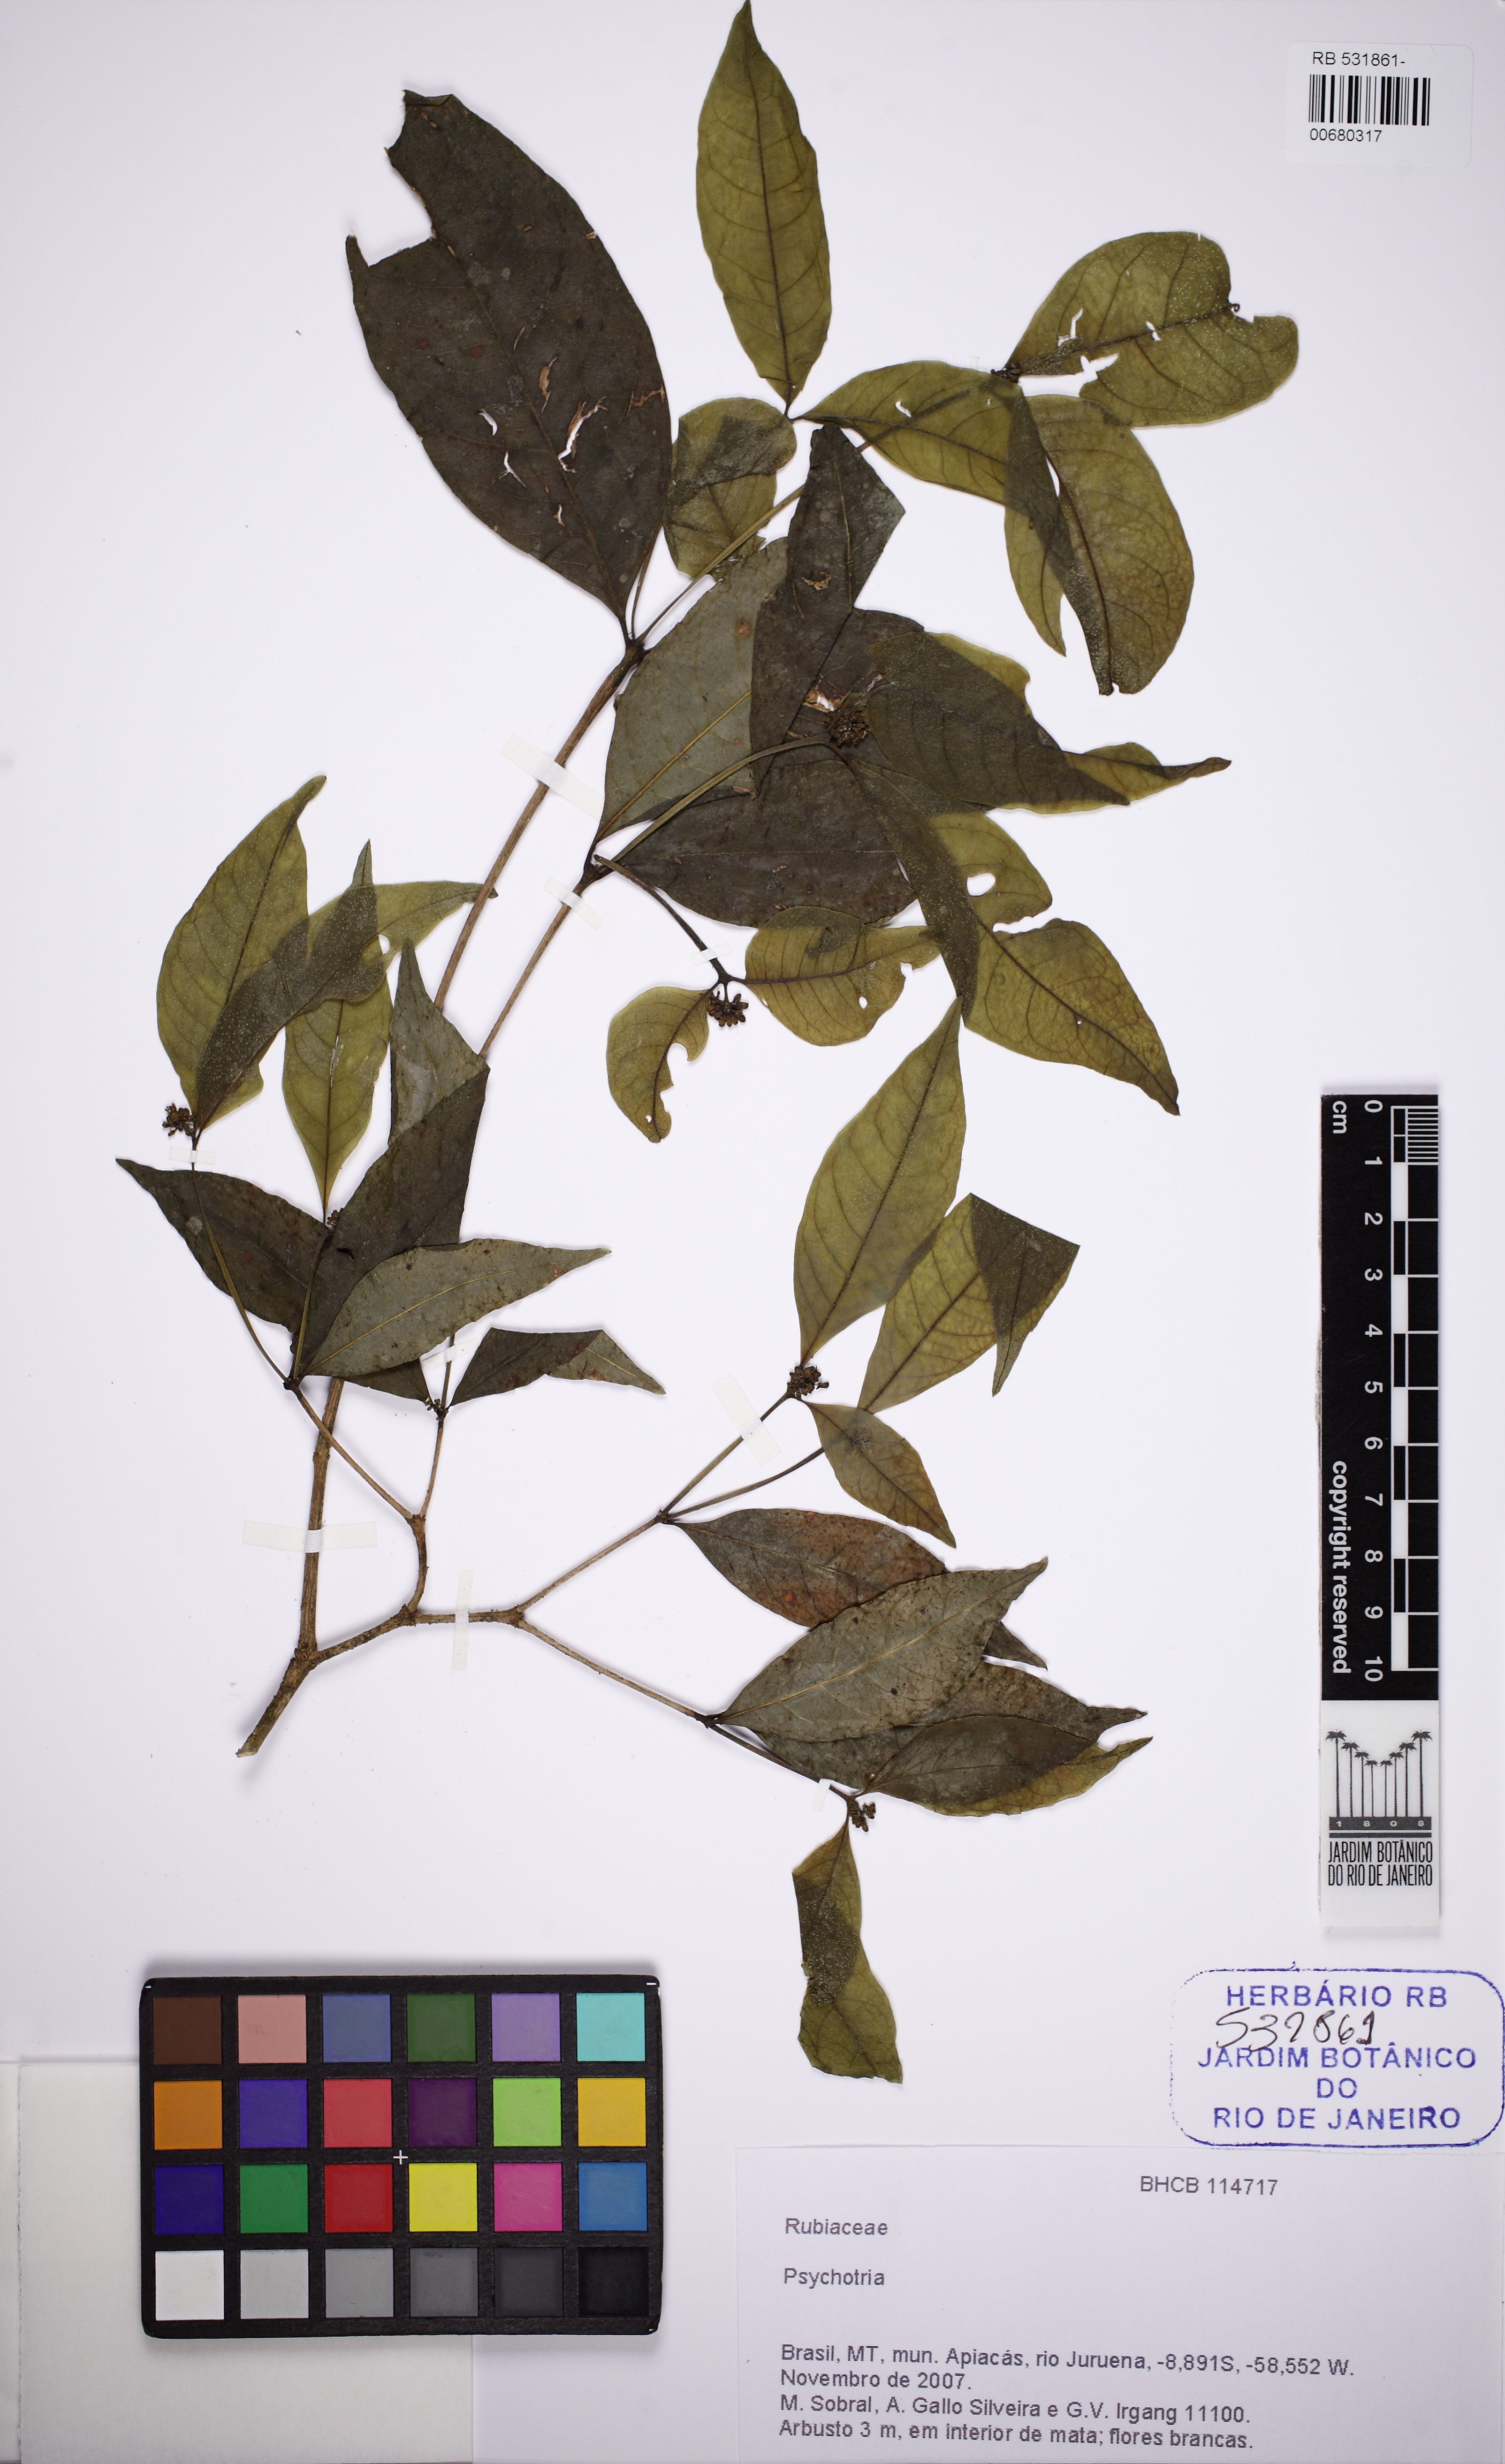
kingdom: Plantae
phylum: Tracheophyta
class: Magnoliopsida
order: Gentianales
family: Rubiaceae
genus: Eumachia
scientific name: Eumachia chaenotricha
